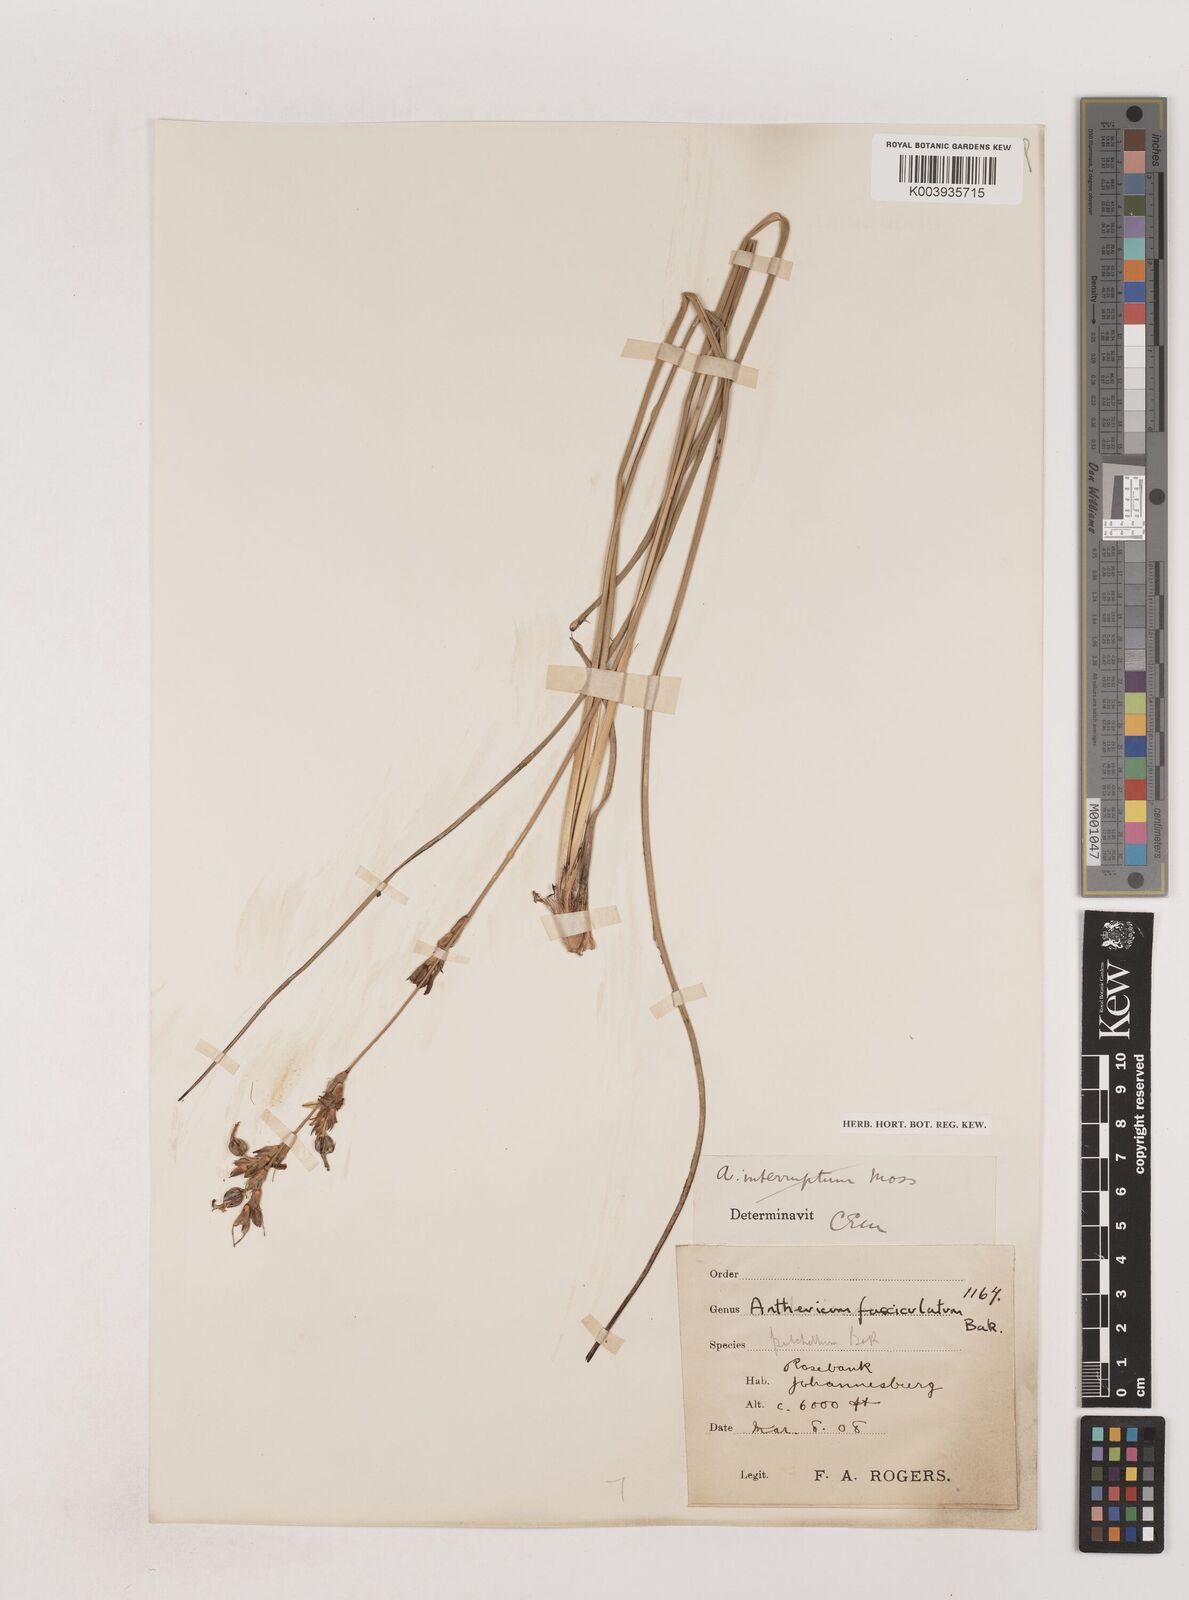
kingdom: Plantae
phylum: Tracheophyta
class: Liliopsida
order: Asparagales
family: Asparagaceae
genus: Chlorophytum
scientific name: Chlorophytum fasciculatum
